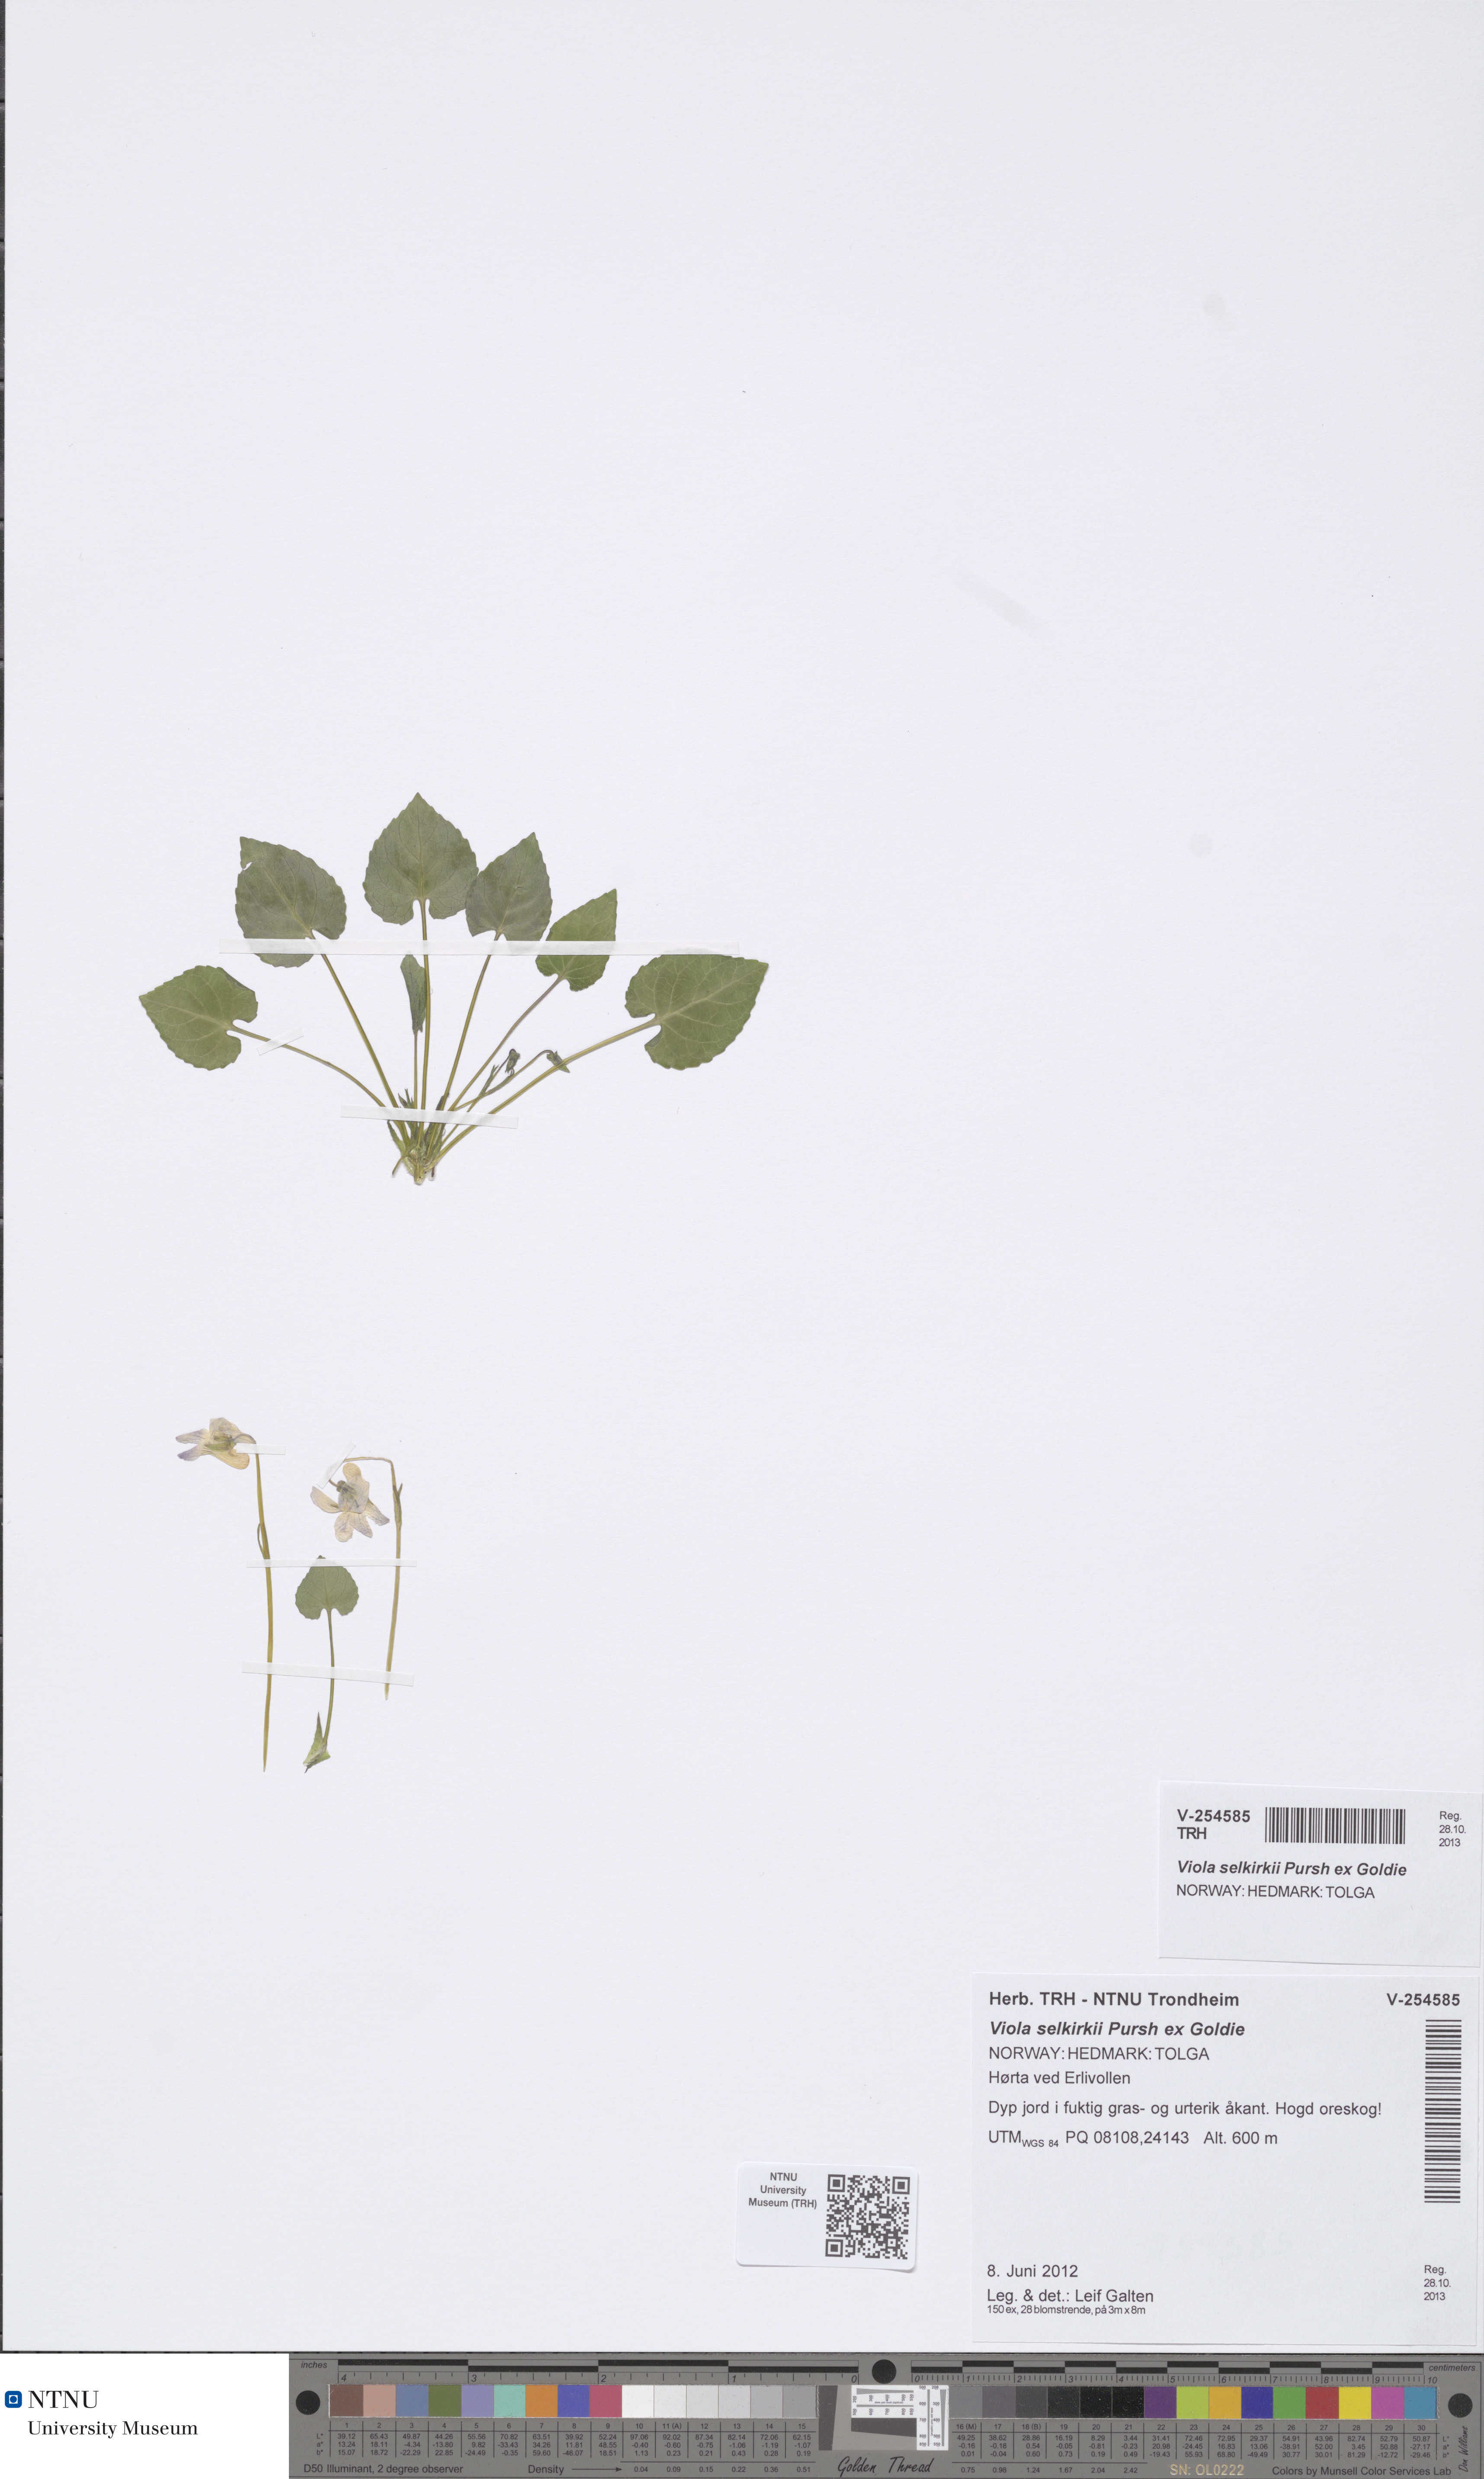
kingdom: Plantae
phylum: Tracheophyta
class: Magnoliopsida
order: Malpighiales
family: Violaceae
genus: Viola
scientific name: Viola selkirkii
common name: Selkirk's violet
